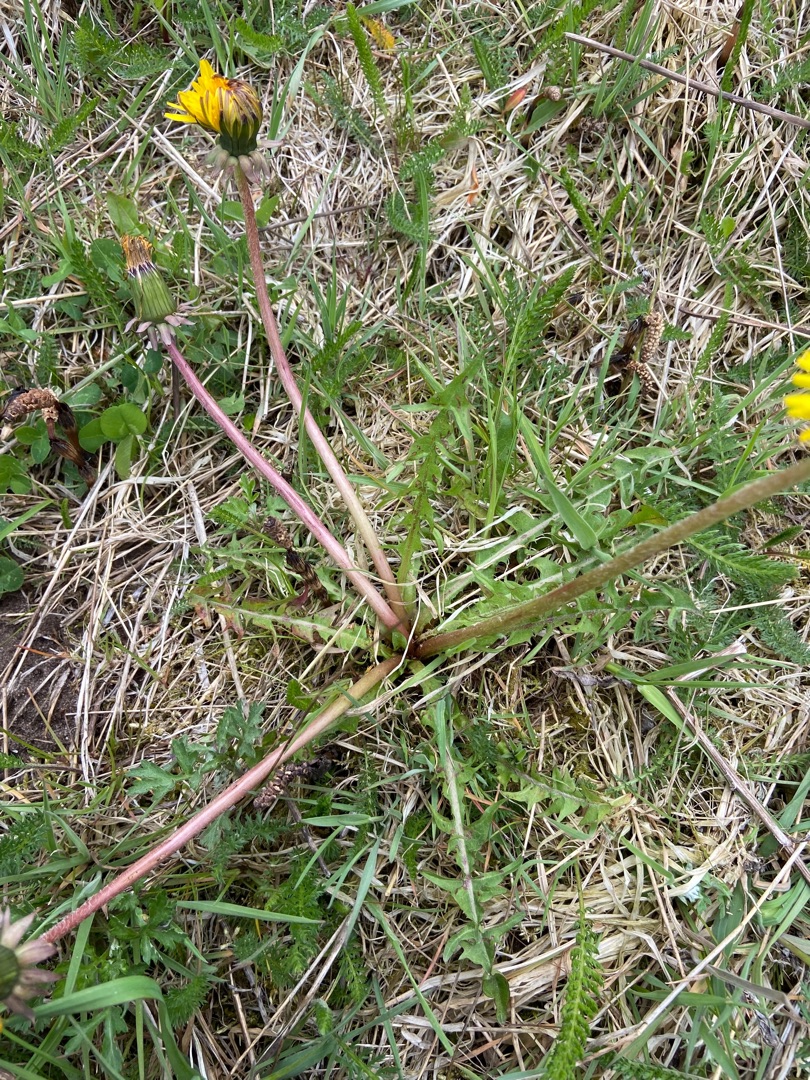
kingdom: Plantae
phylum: Tracheophyta
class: Magnoliopsida
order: Asterales
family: Asteraceae
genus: Taraxacum
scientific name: Taraxacum
